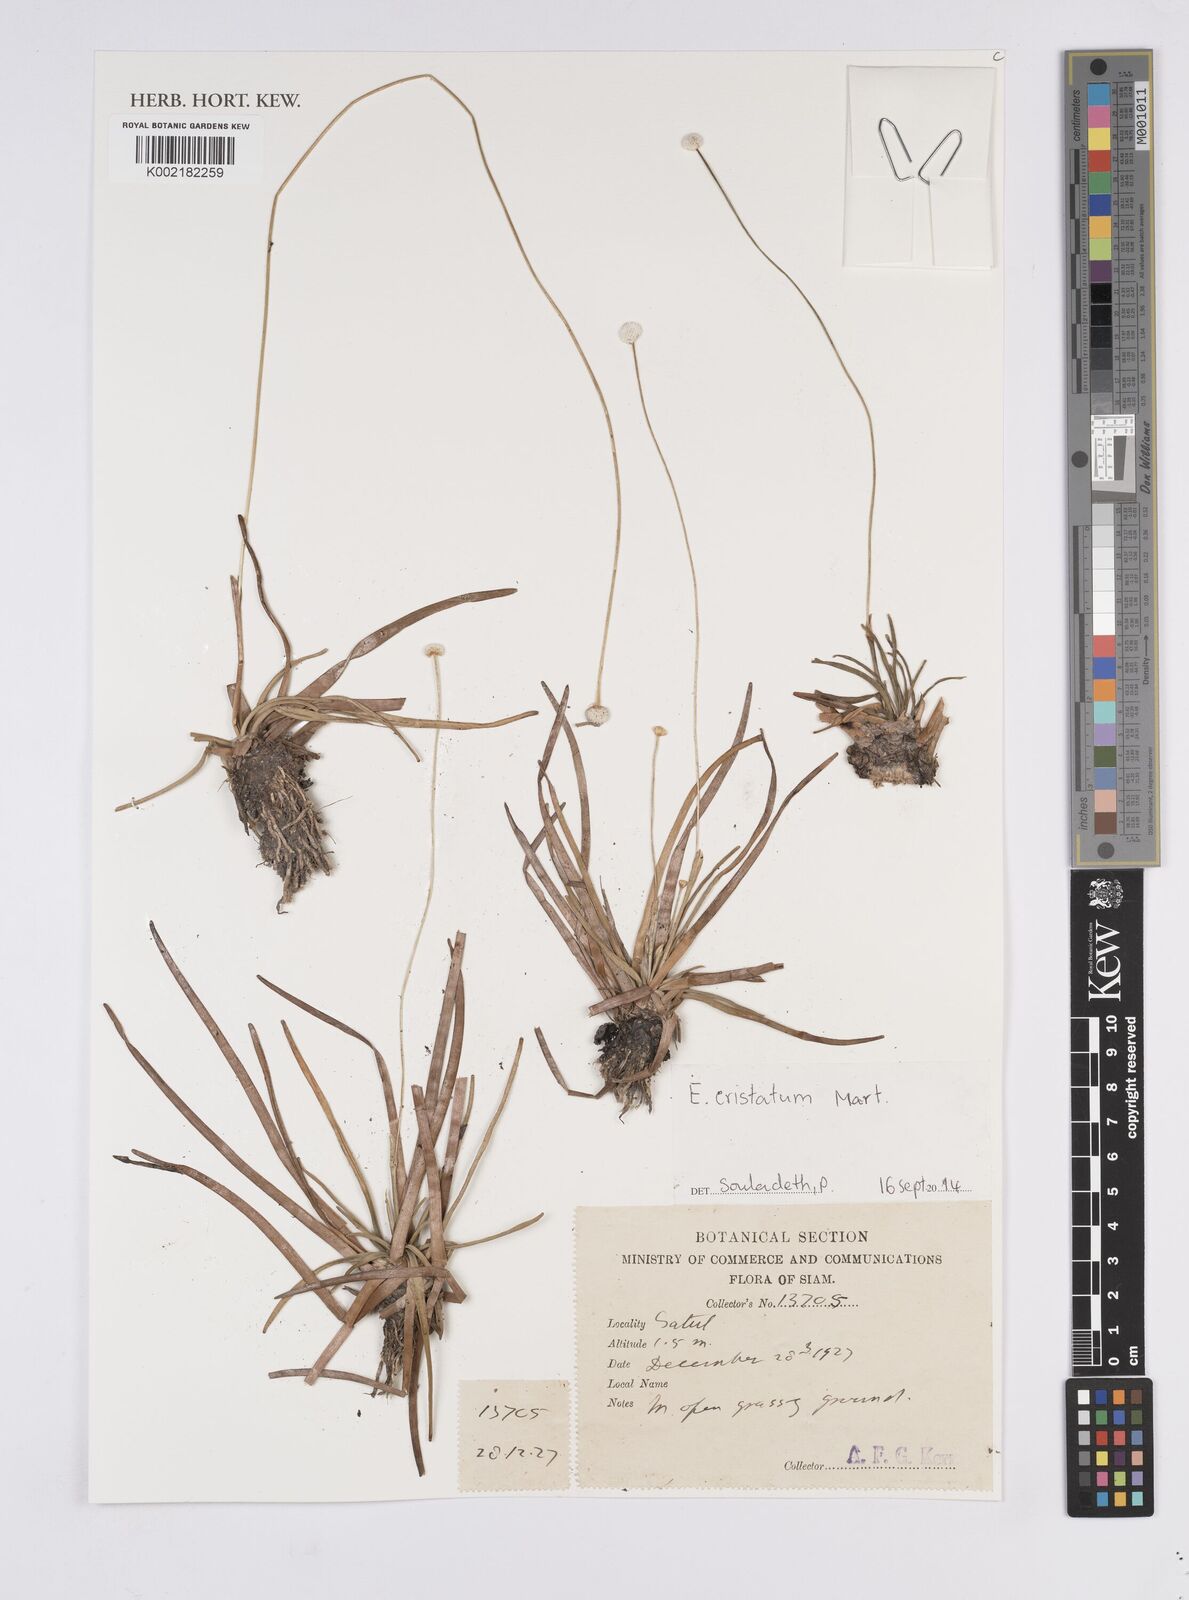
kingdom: Plantae
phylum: Tracheophyta
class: Liliopsida
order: Poales
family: Eriocaulaceae
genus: Eriocaulon
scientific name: Eriocaulon cristatum
